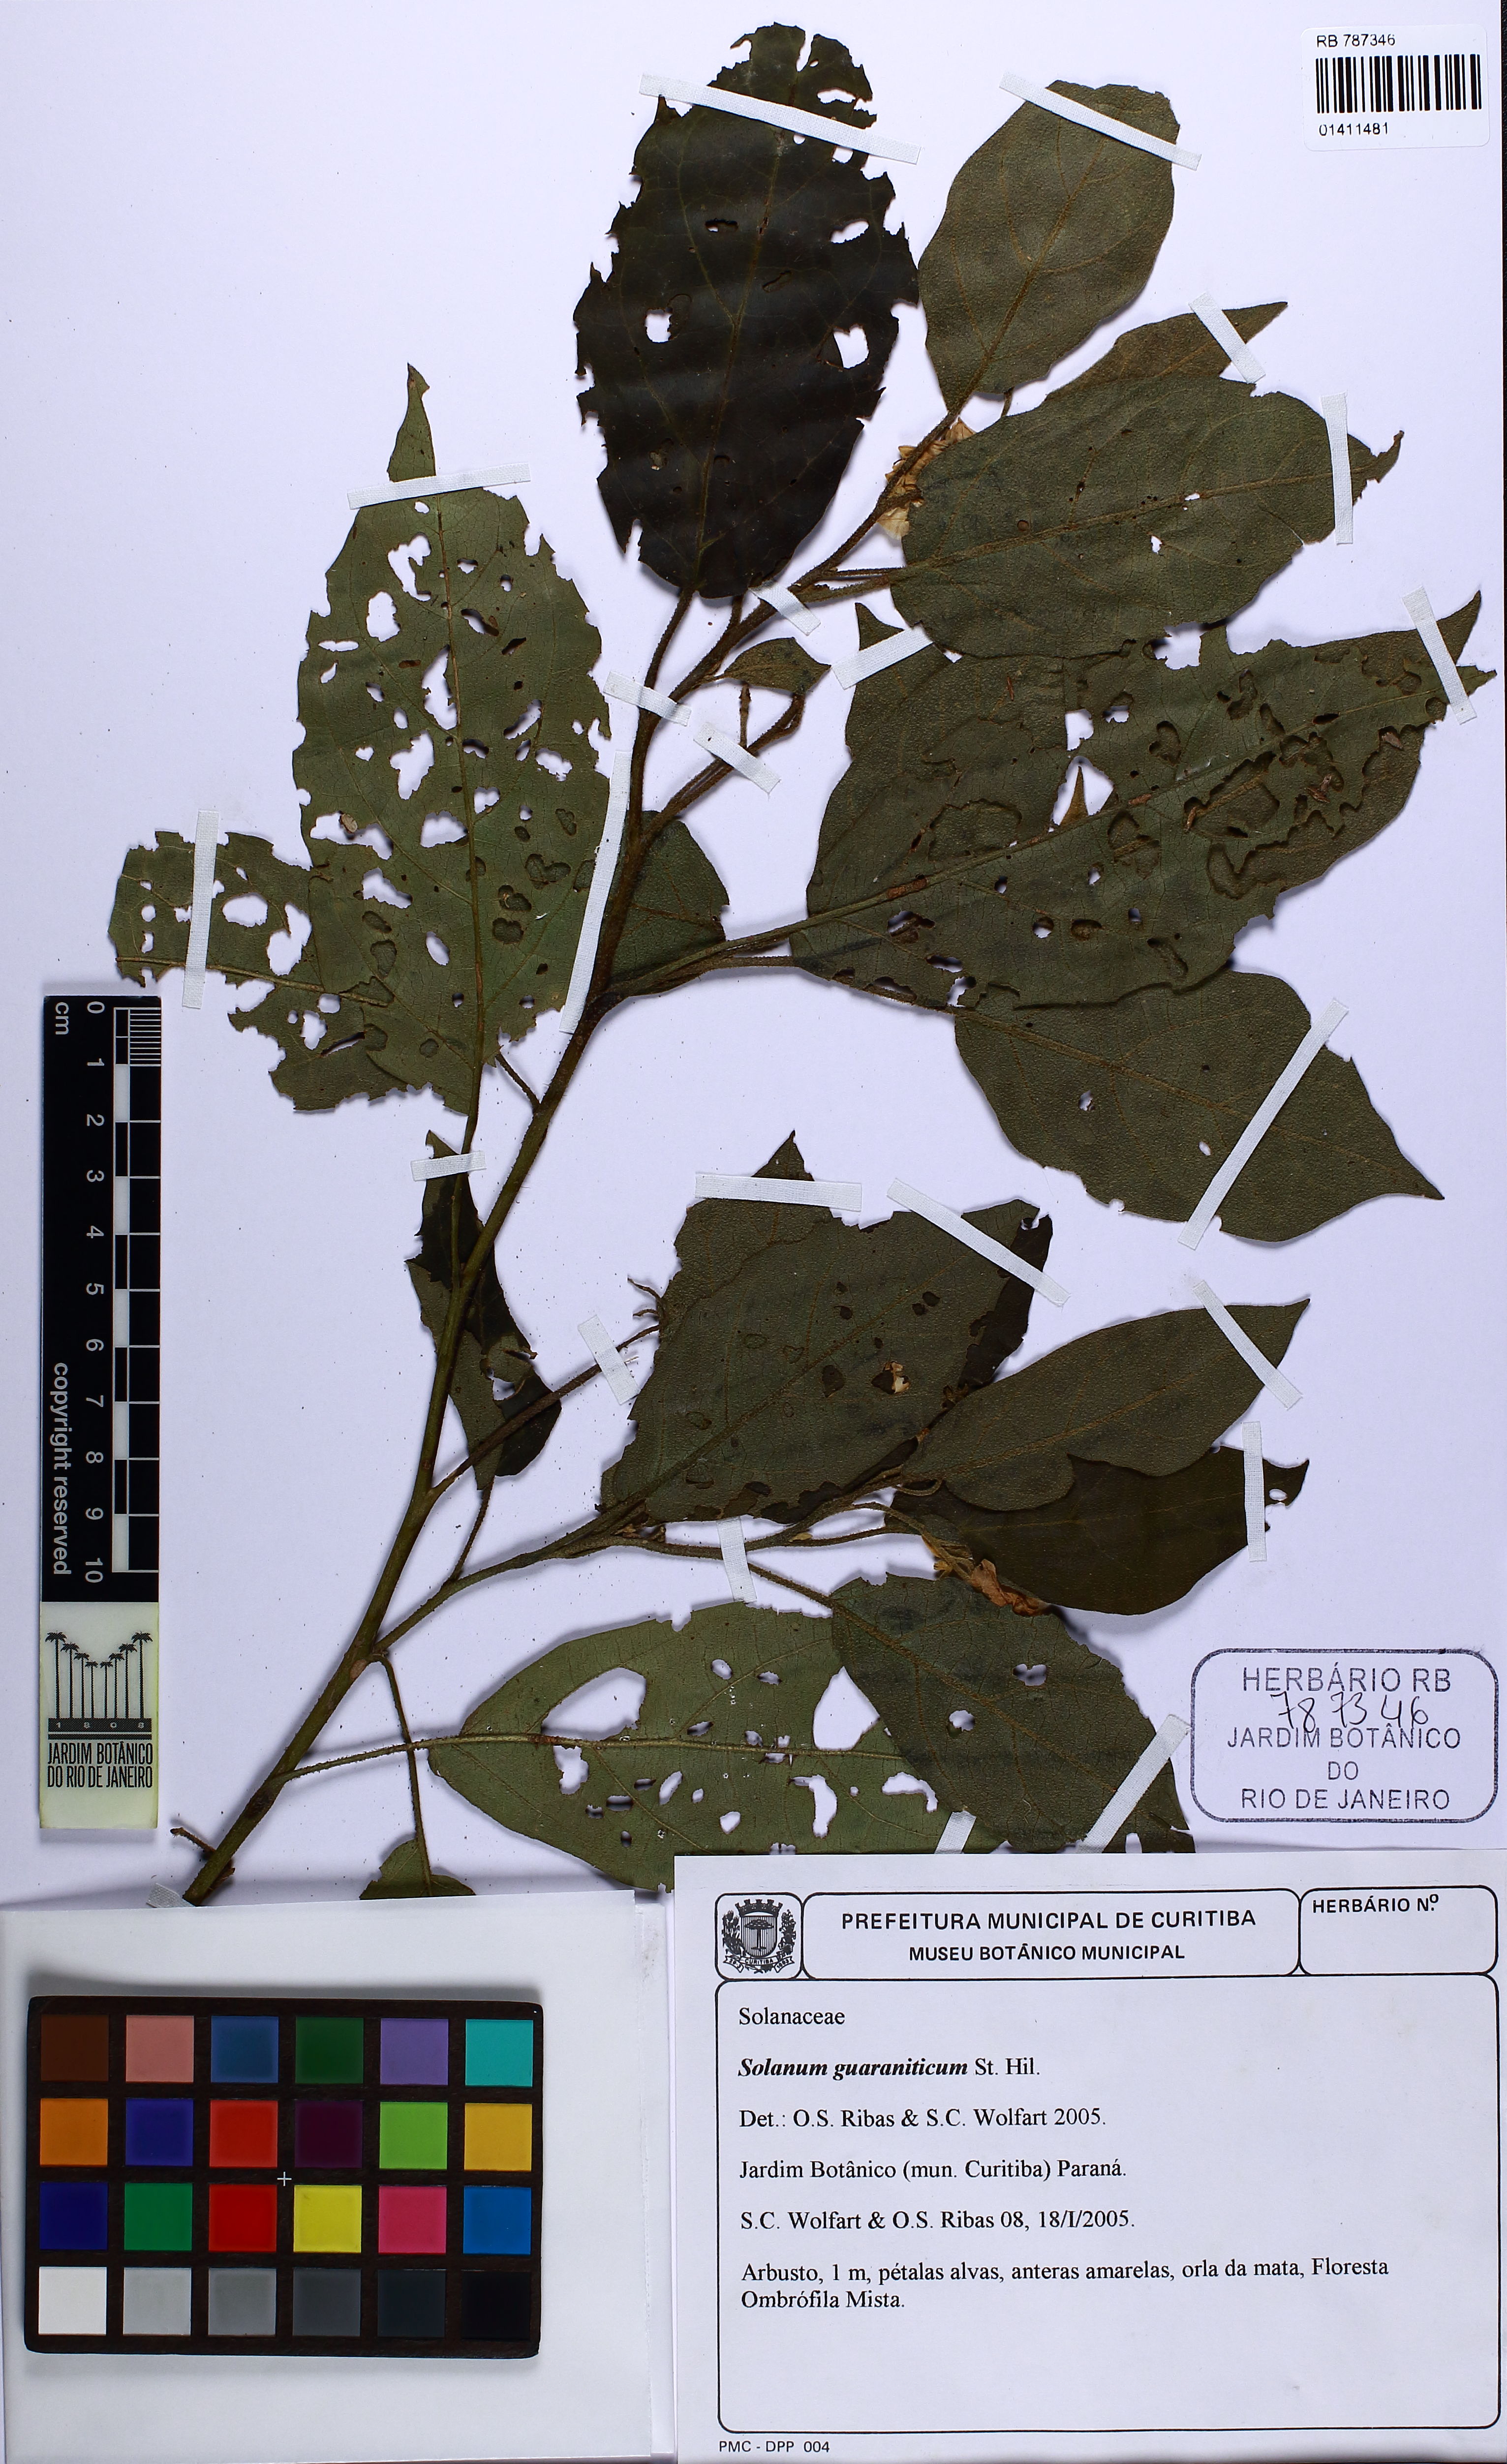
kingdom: Plantae
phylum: Tracheophyta
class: Magnoliopsida
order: Solanales
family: Solanaceae
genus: Solanum
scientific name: Solanum guaraniticum
